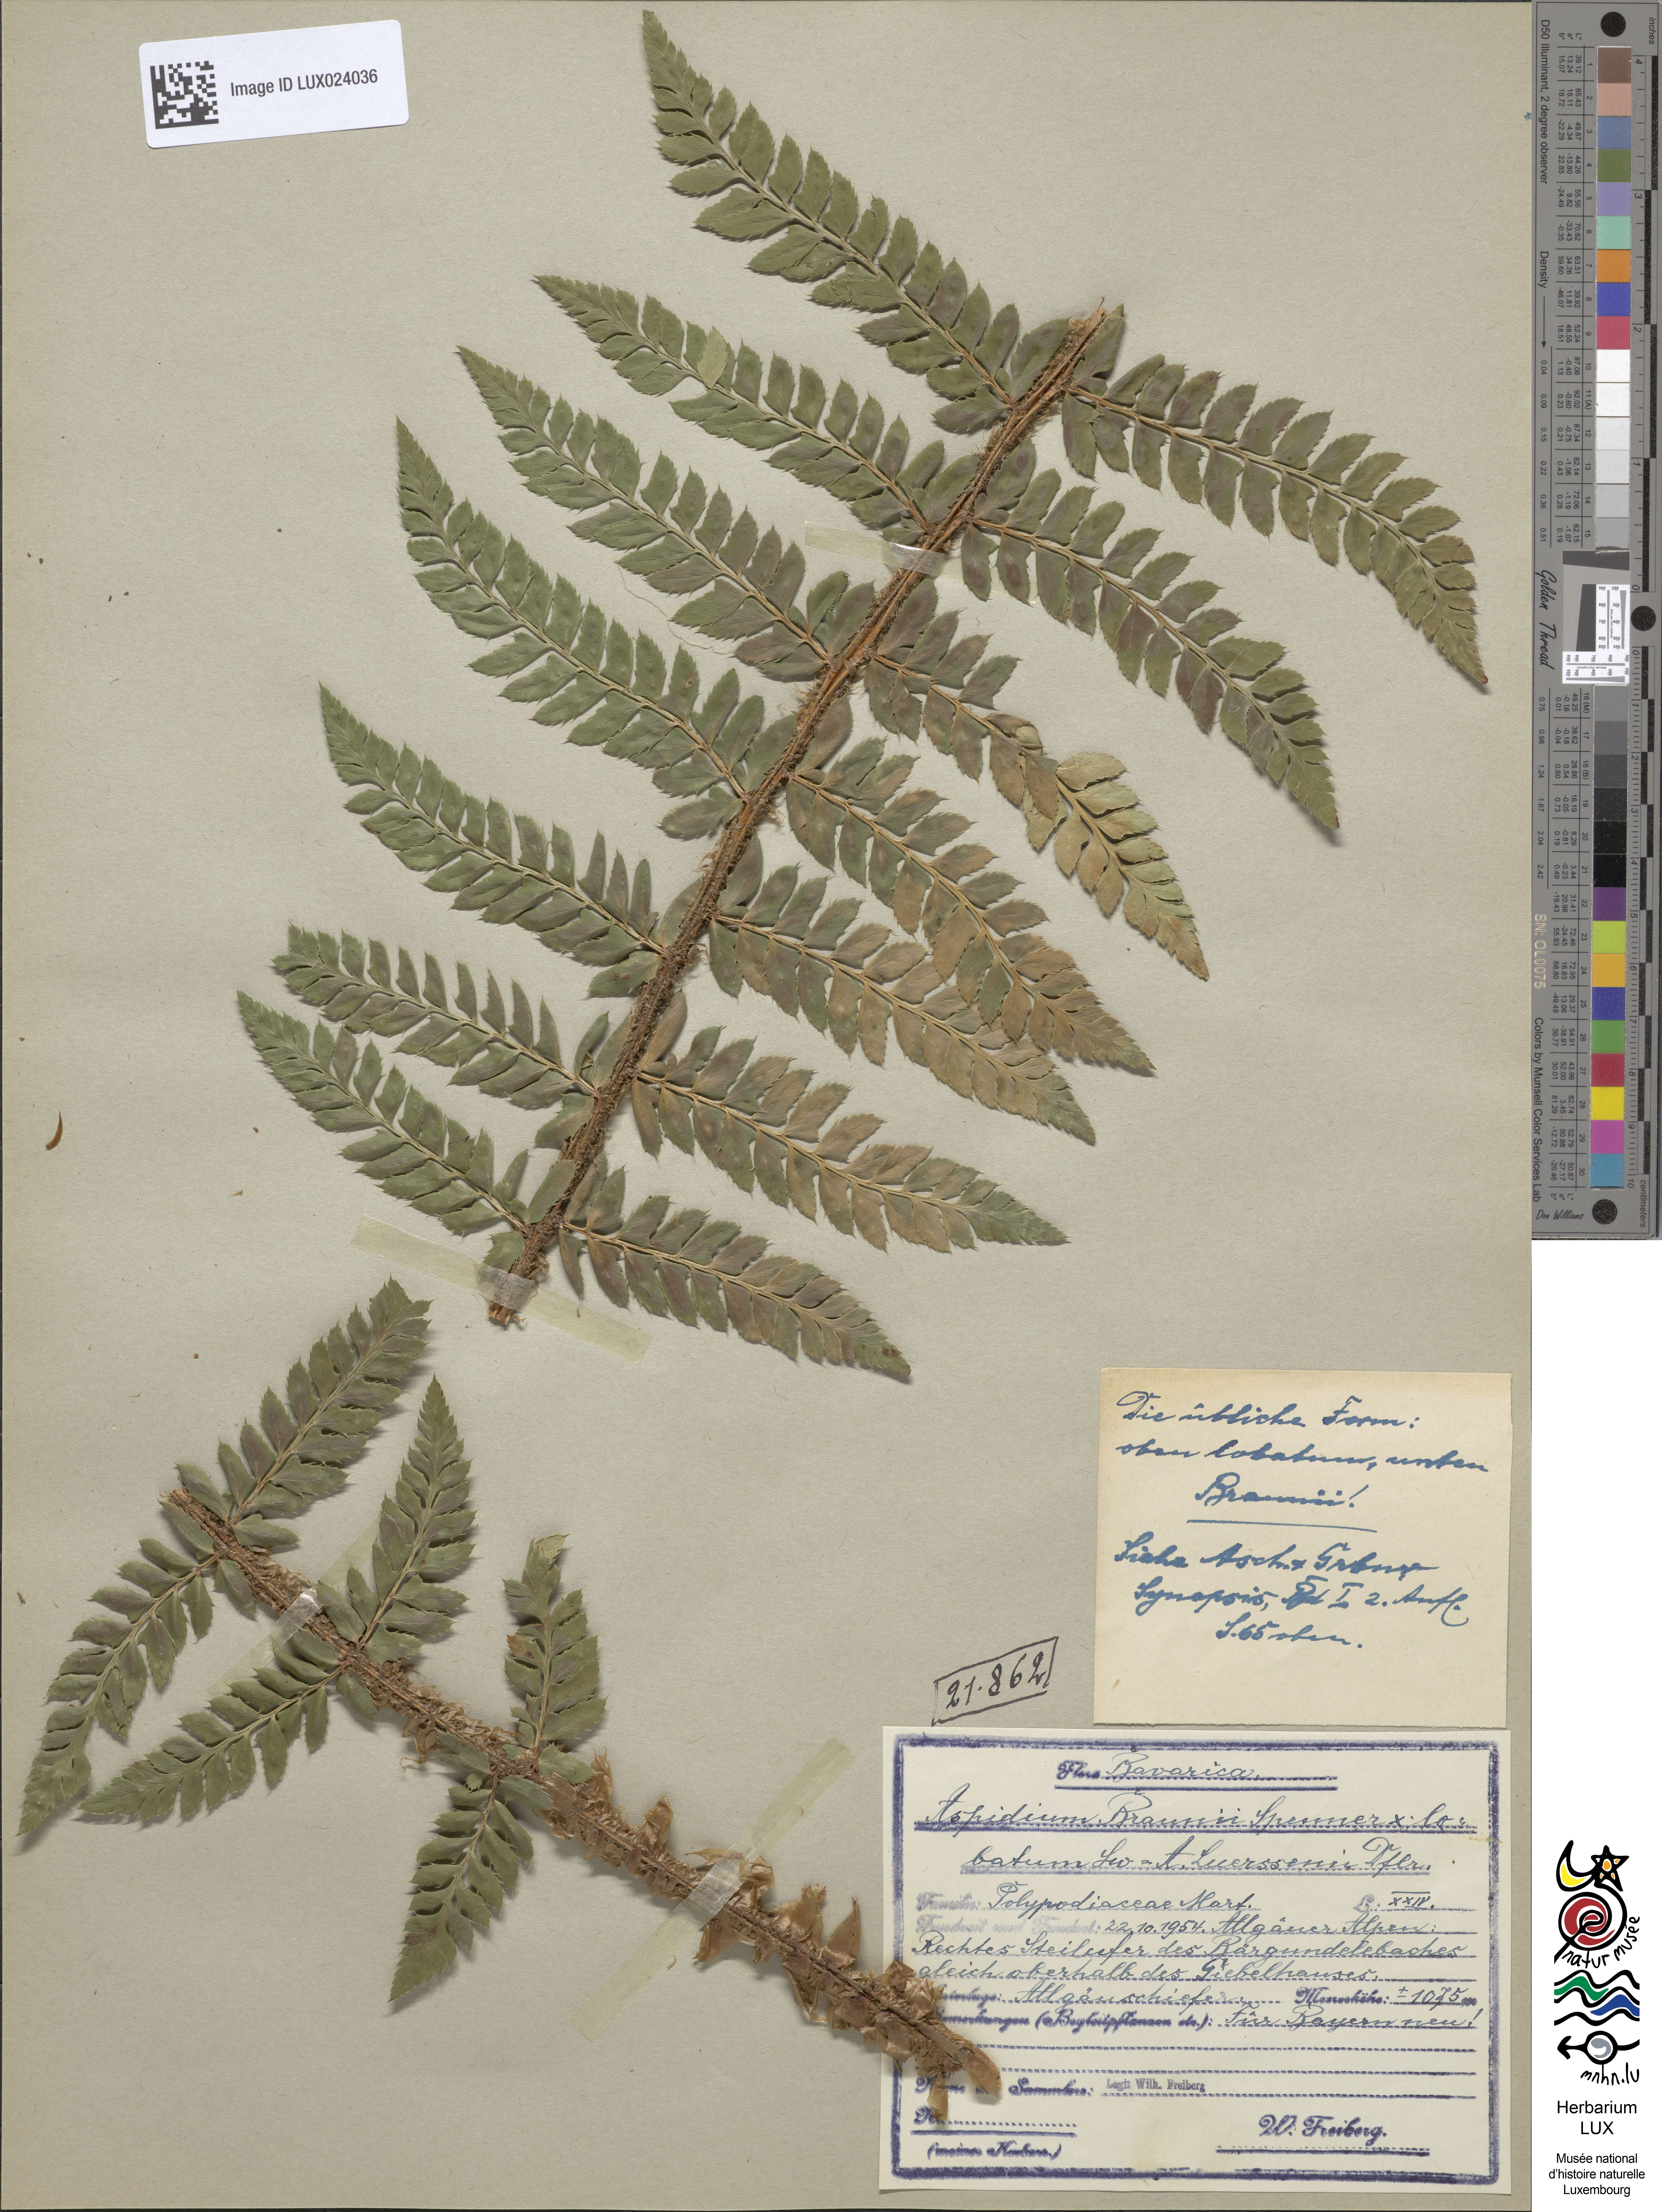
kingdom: Plantae
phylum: Tracheophyta
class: Polypodiopsida
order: Polypodiales
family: Dryopteridaceae
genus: Polystichum
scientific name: Polystichum luerssenii
